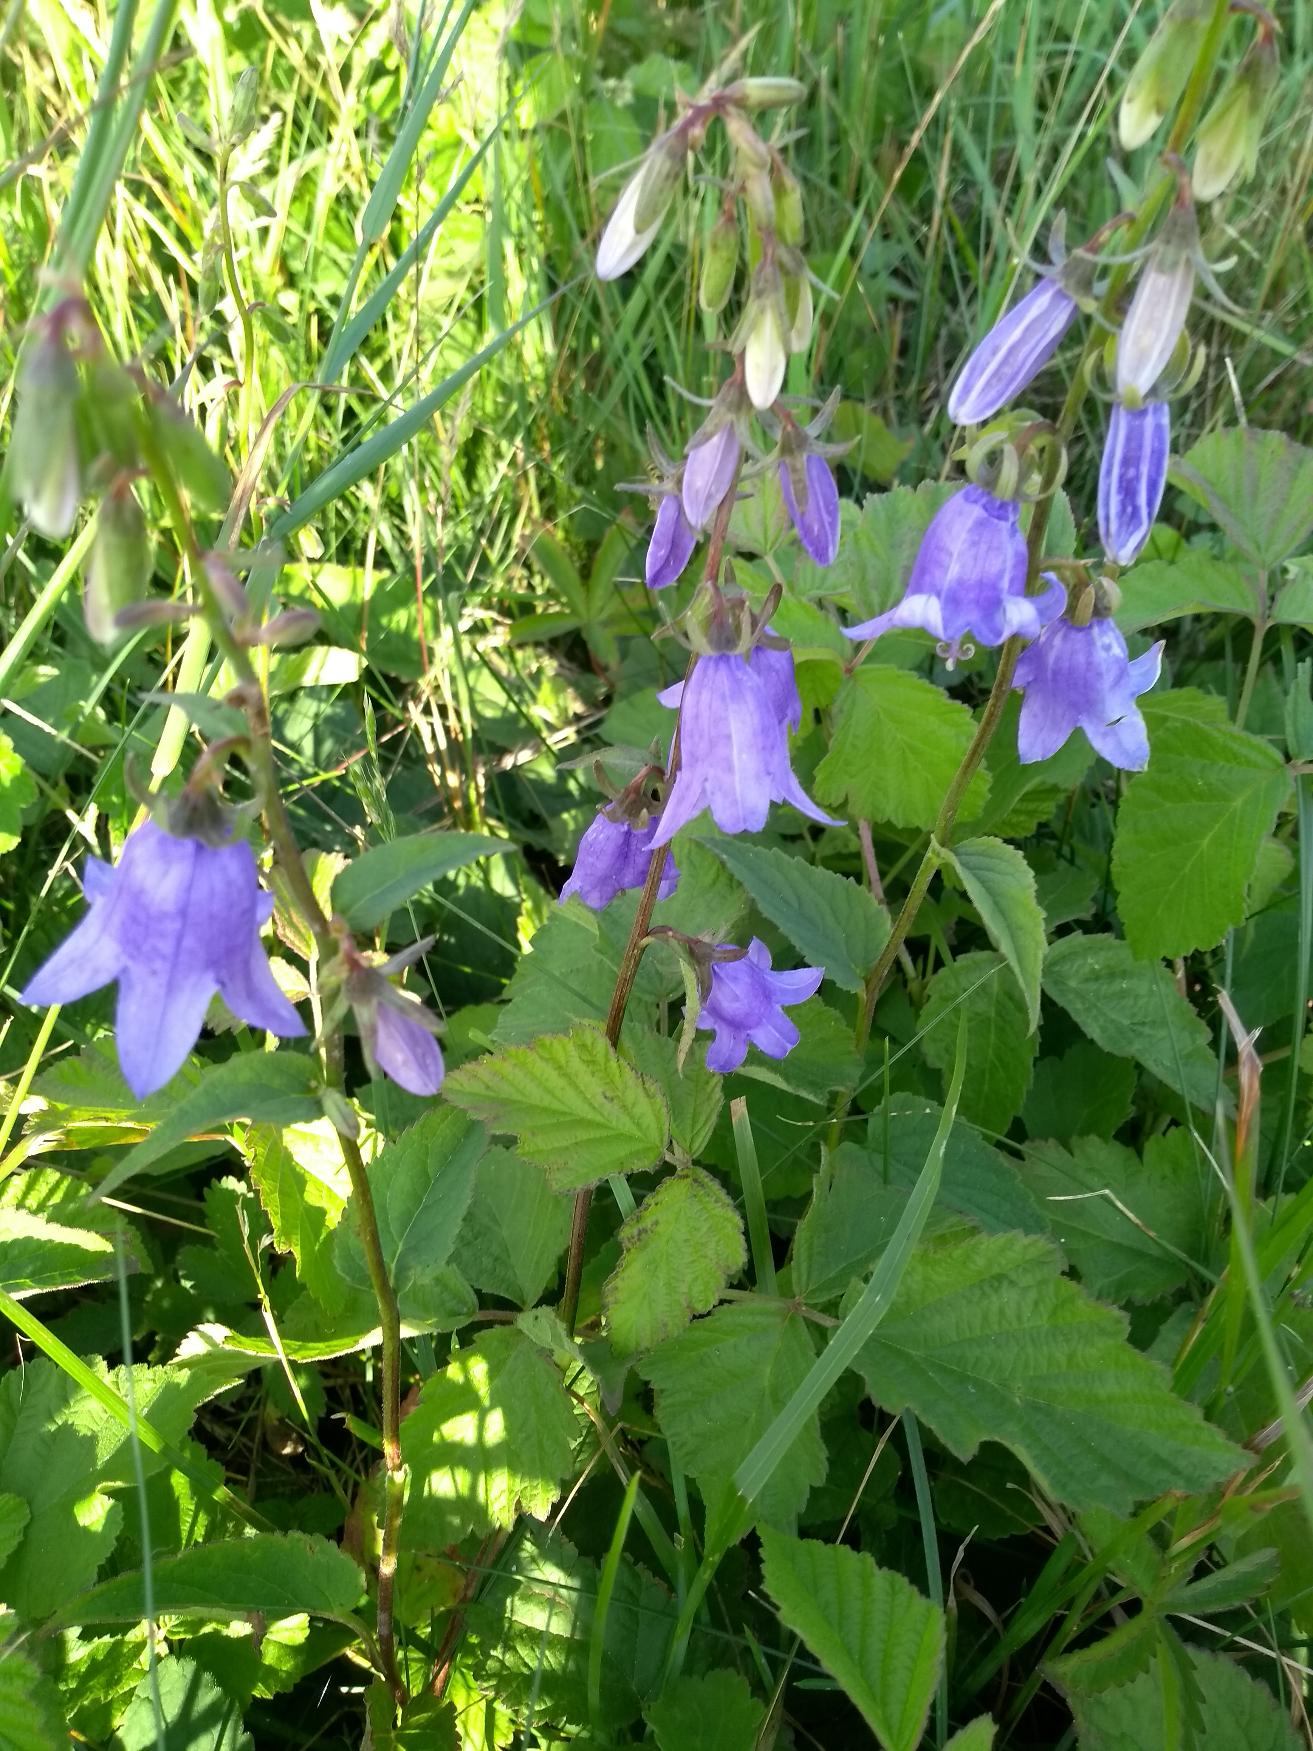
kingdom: Plantae
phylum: Tracheophyta
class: Magnoliopsida
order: Asterales
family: Campanulaceae
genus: Campanula
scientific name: Campanula rapunculoides
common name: Ensidig klokke
